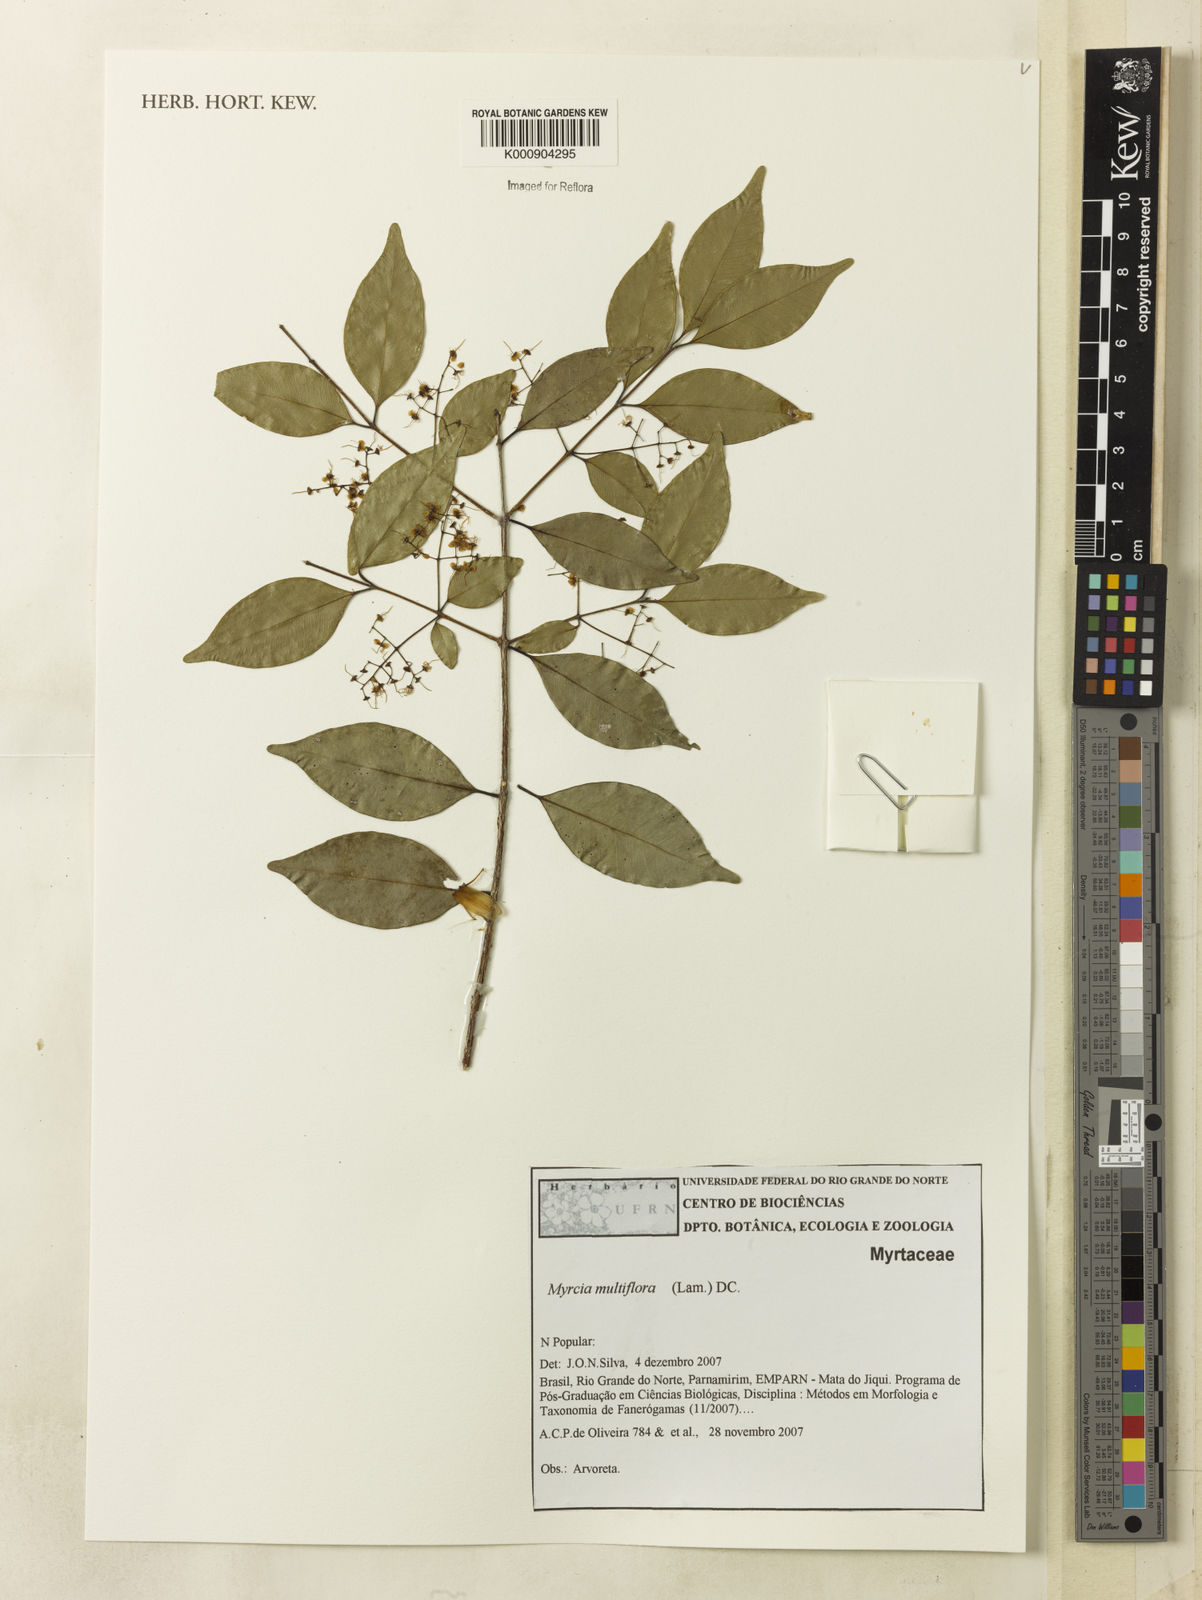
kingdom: Plantae
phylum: Tracheophyta
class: Magnoliopsida
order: Myrtales
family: Myrtaceae
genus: Myrcia
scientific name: Myrcia multiflora
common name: Pedra hume
